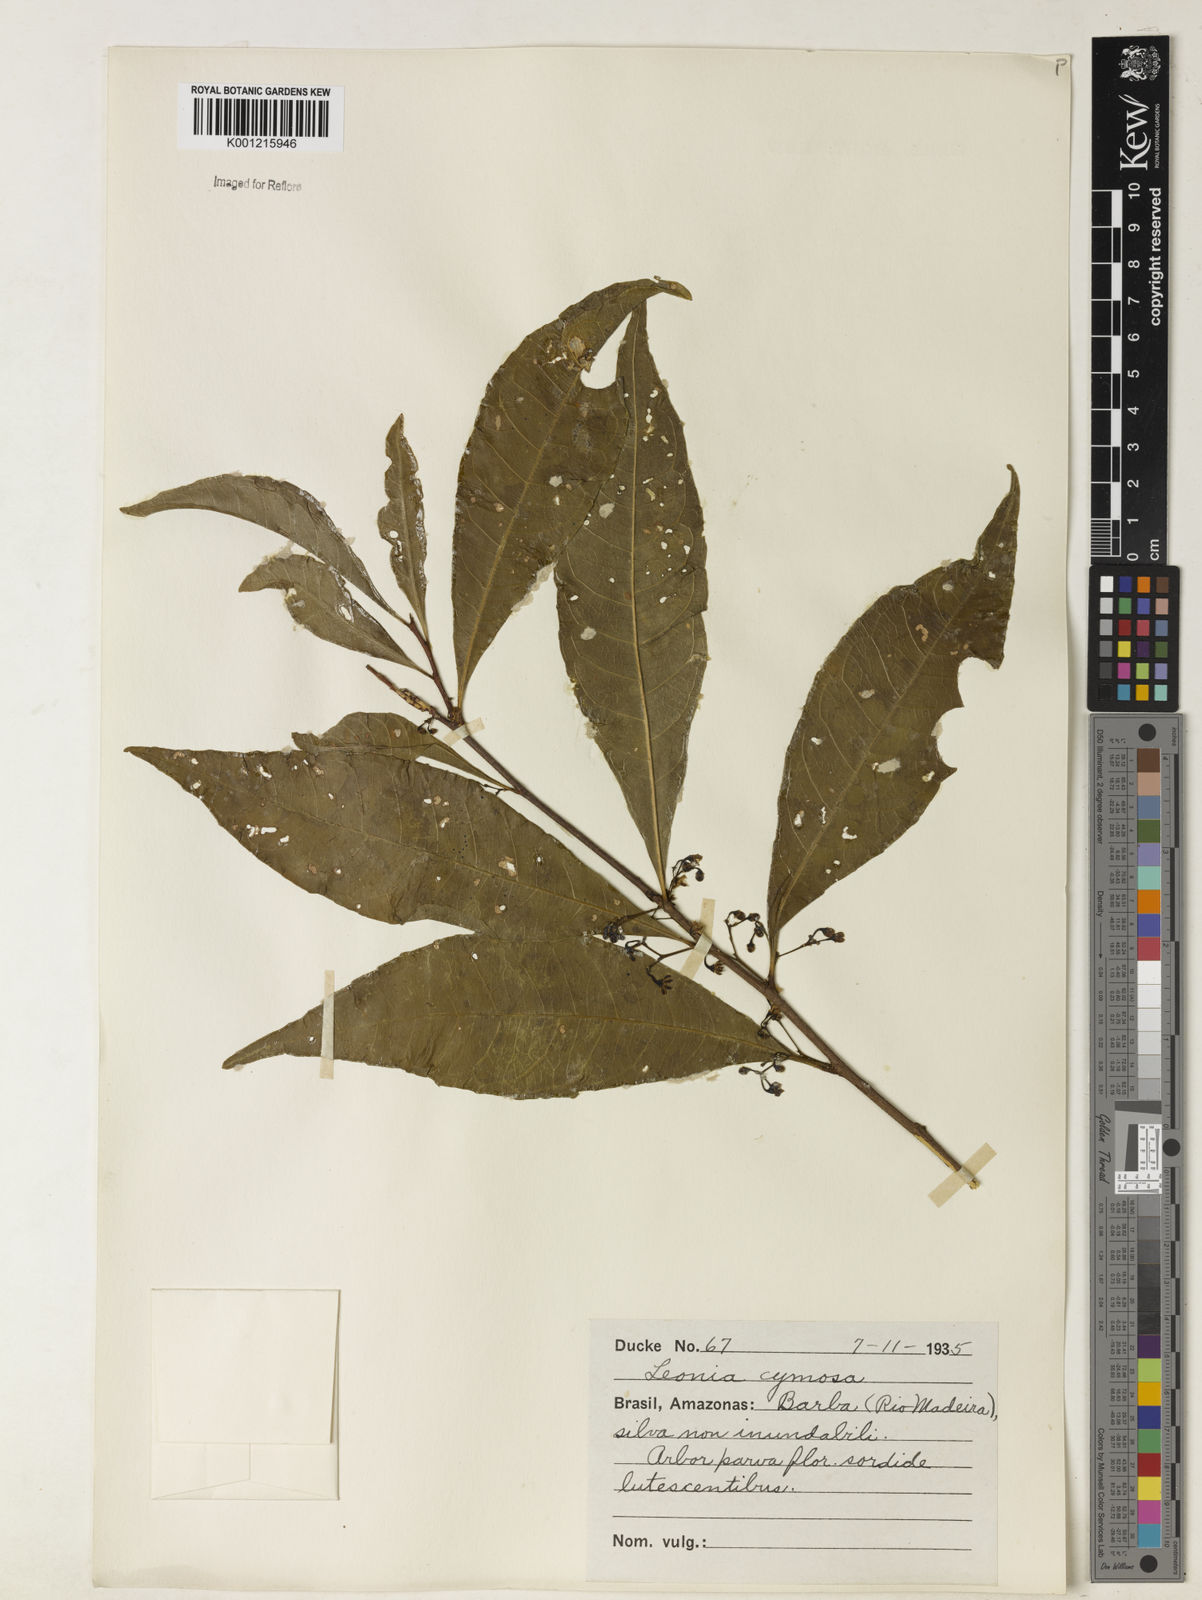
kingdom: Plantae
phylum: Tracheophyta
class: Magnoliopsida
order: Malpighiales
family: Violaceae
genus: Leonia
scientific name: Leonia cymosa
